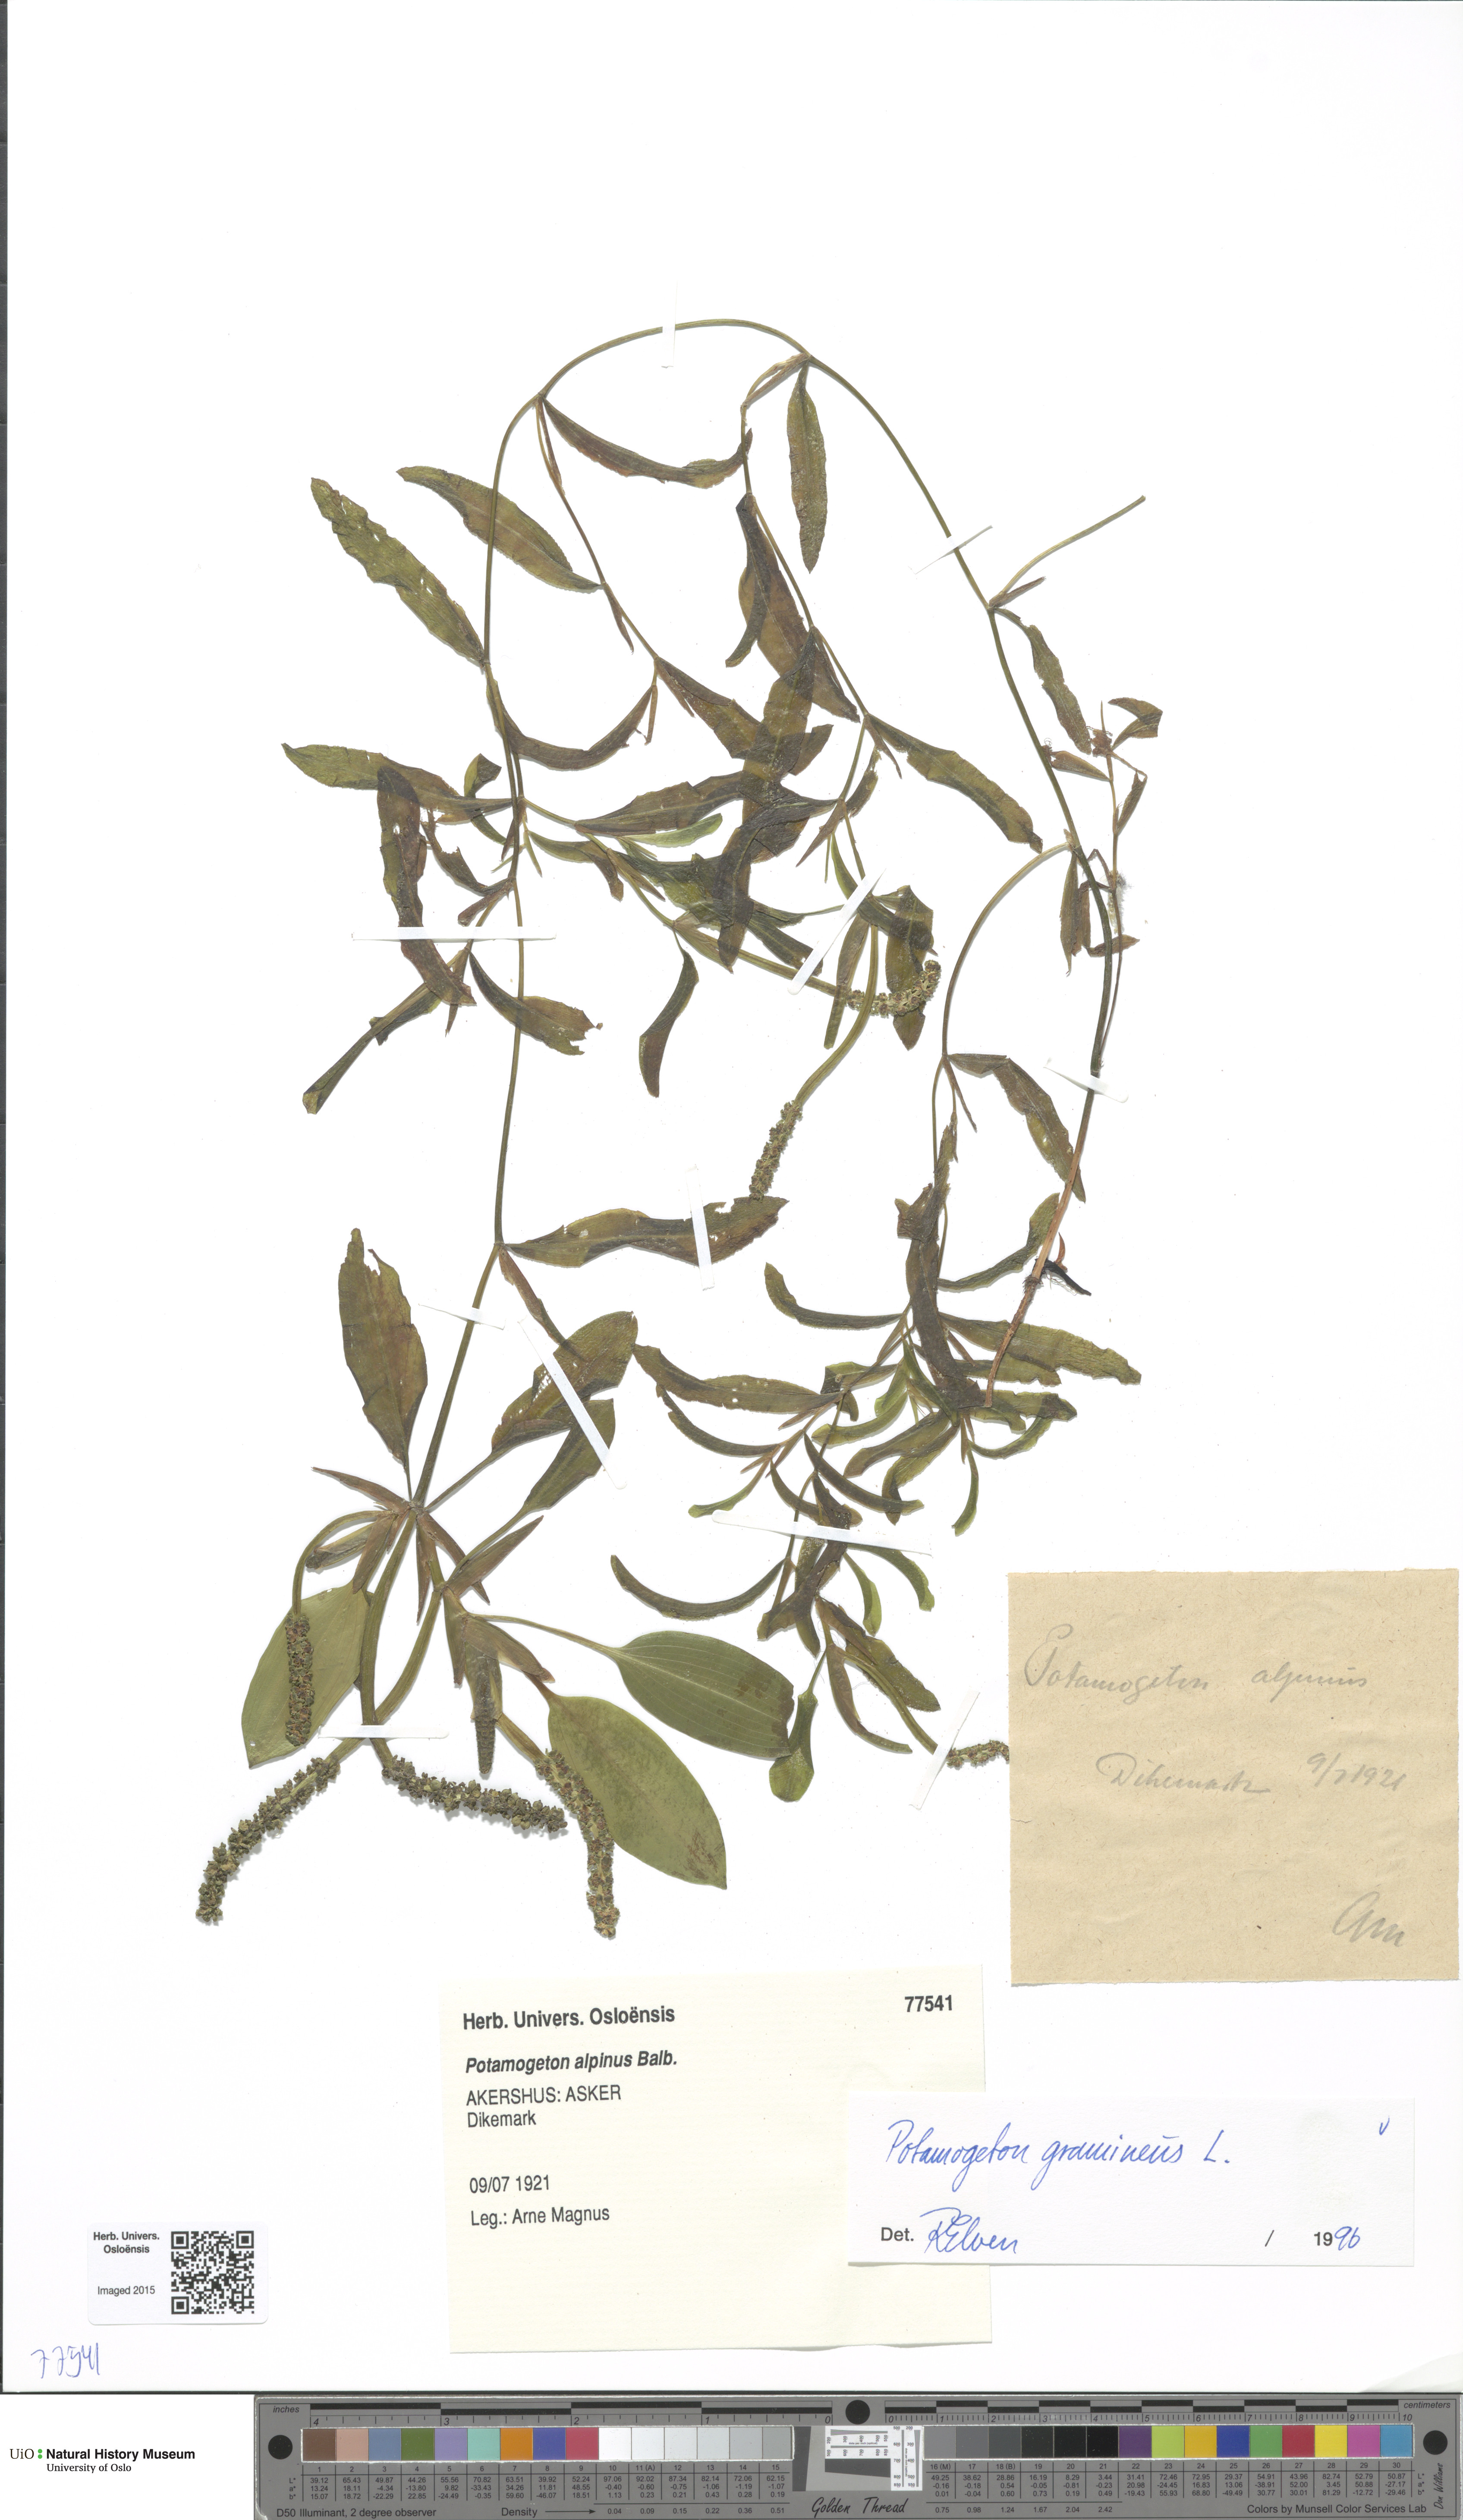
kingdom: Plantae
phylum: Tracheophyta
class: Liliopsida
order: Alismatales
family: Potamogetonaceae
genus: Potamogeton
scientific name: Potamogeton gramineus
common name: Various-leaved pondweed
